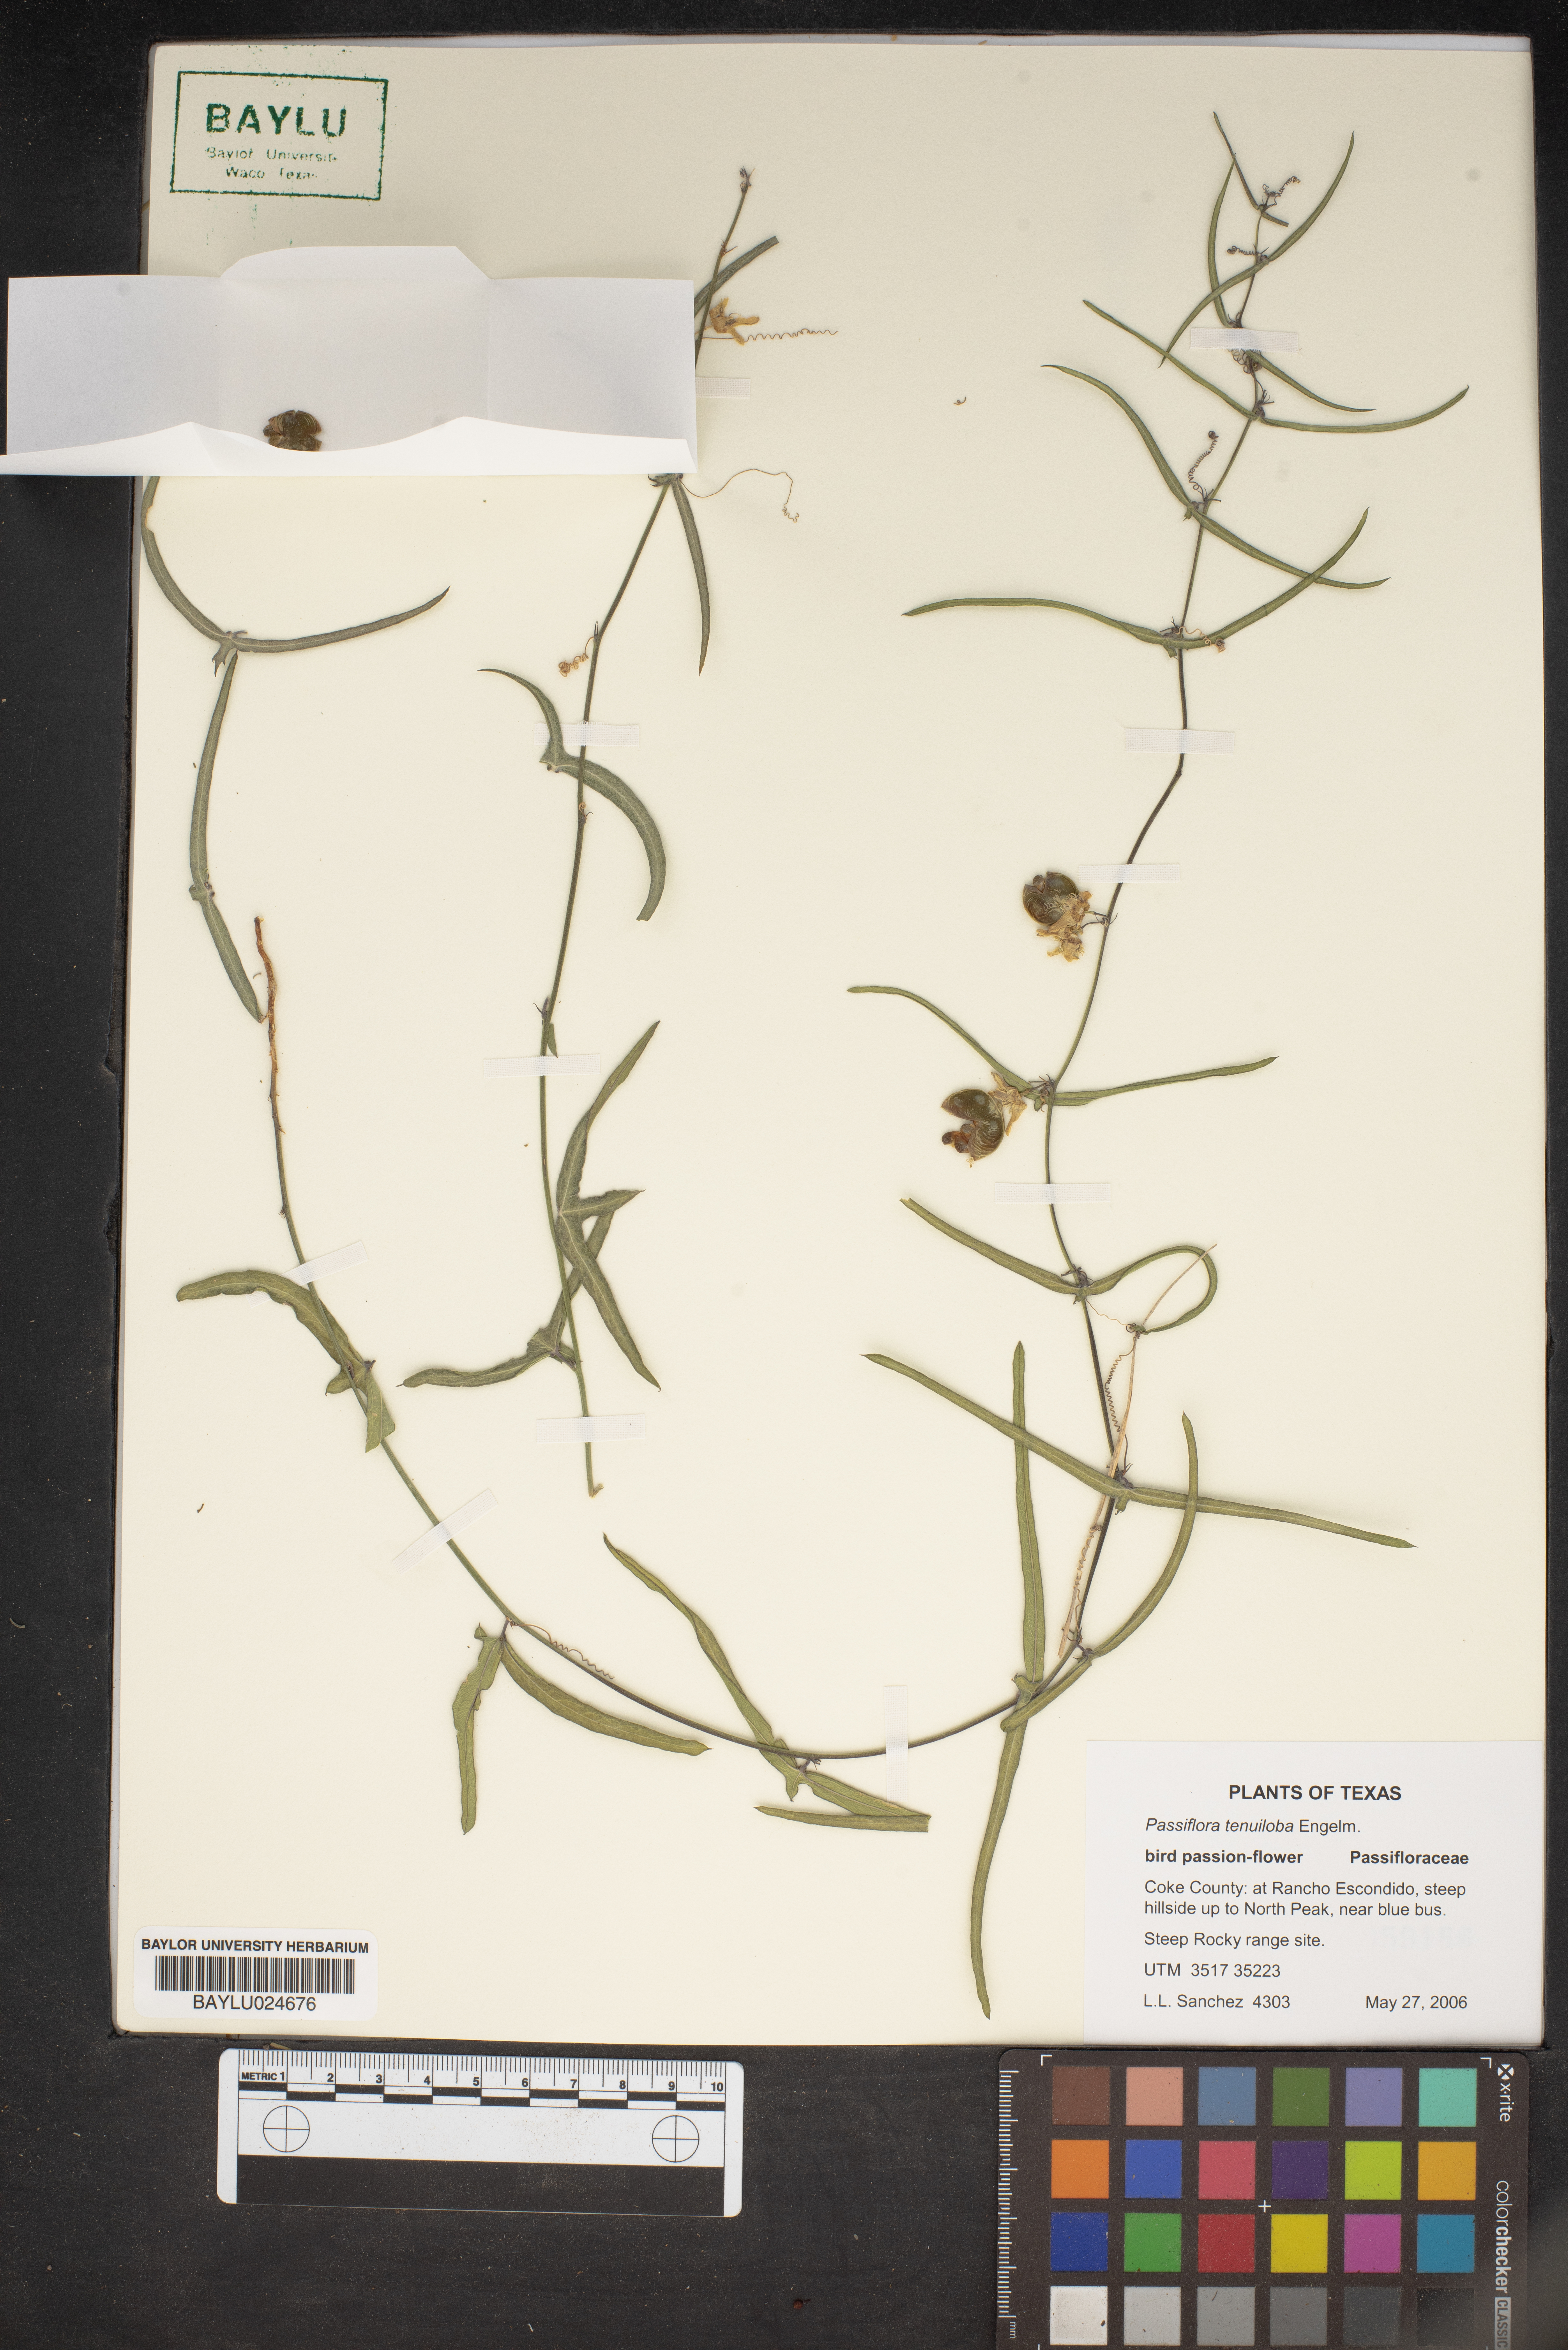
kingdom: Plantae
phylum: Tracheophyta
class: Magnoliopsida
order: Malpighiales
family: Passifloraceae
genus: Passiflora
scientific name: Passiflora tenuiloba
